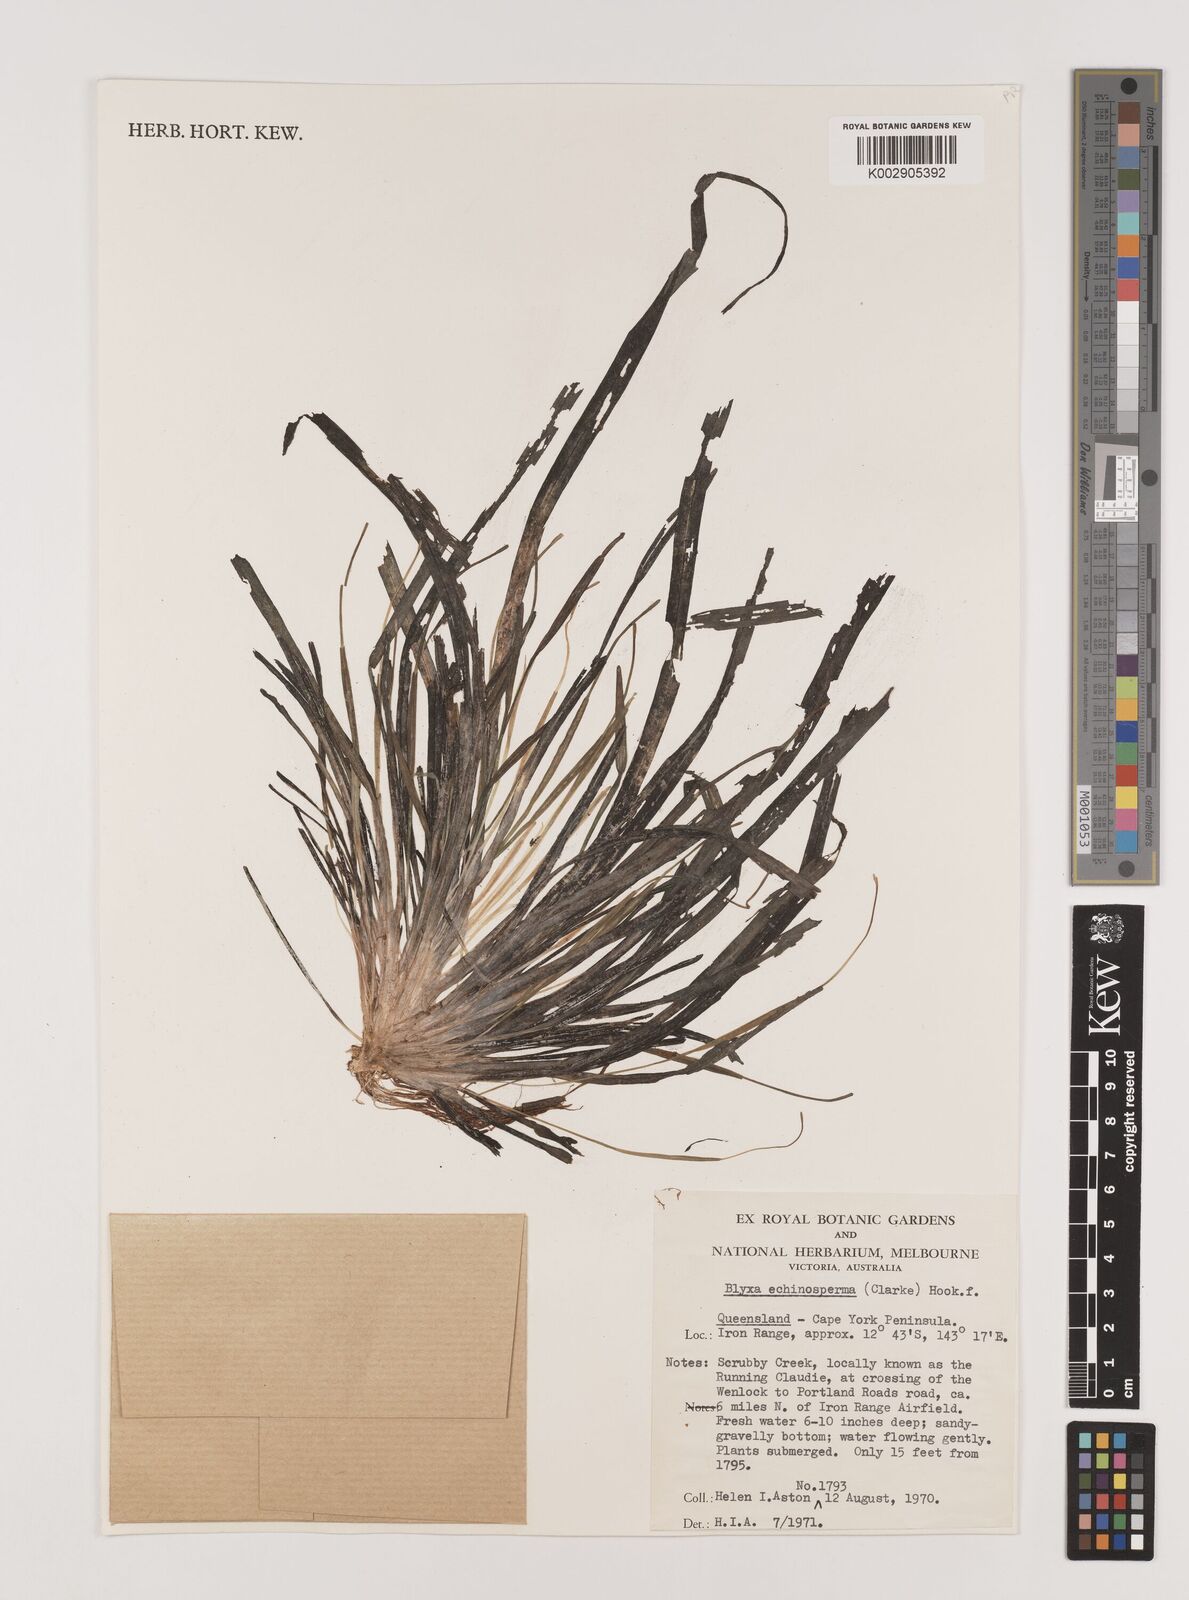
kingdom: Plantae
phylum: Tracheophyta
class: Liliopsida
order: Alismatales
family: Hydrocharitaceae
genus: Blyxa
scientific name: Blyxa echinosperma
